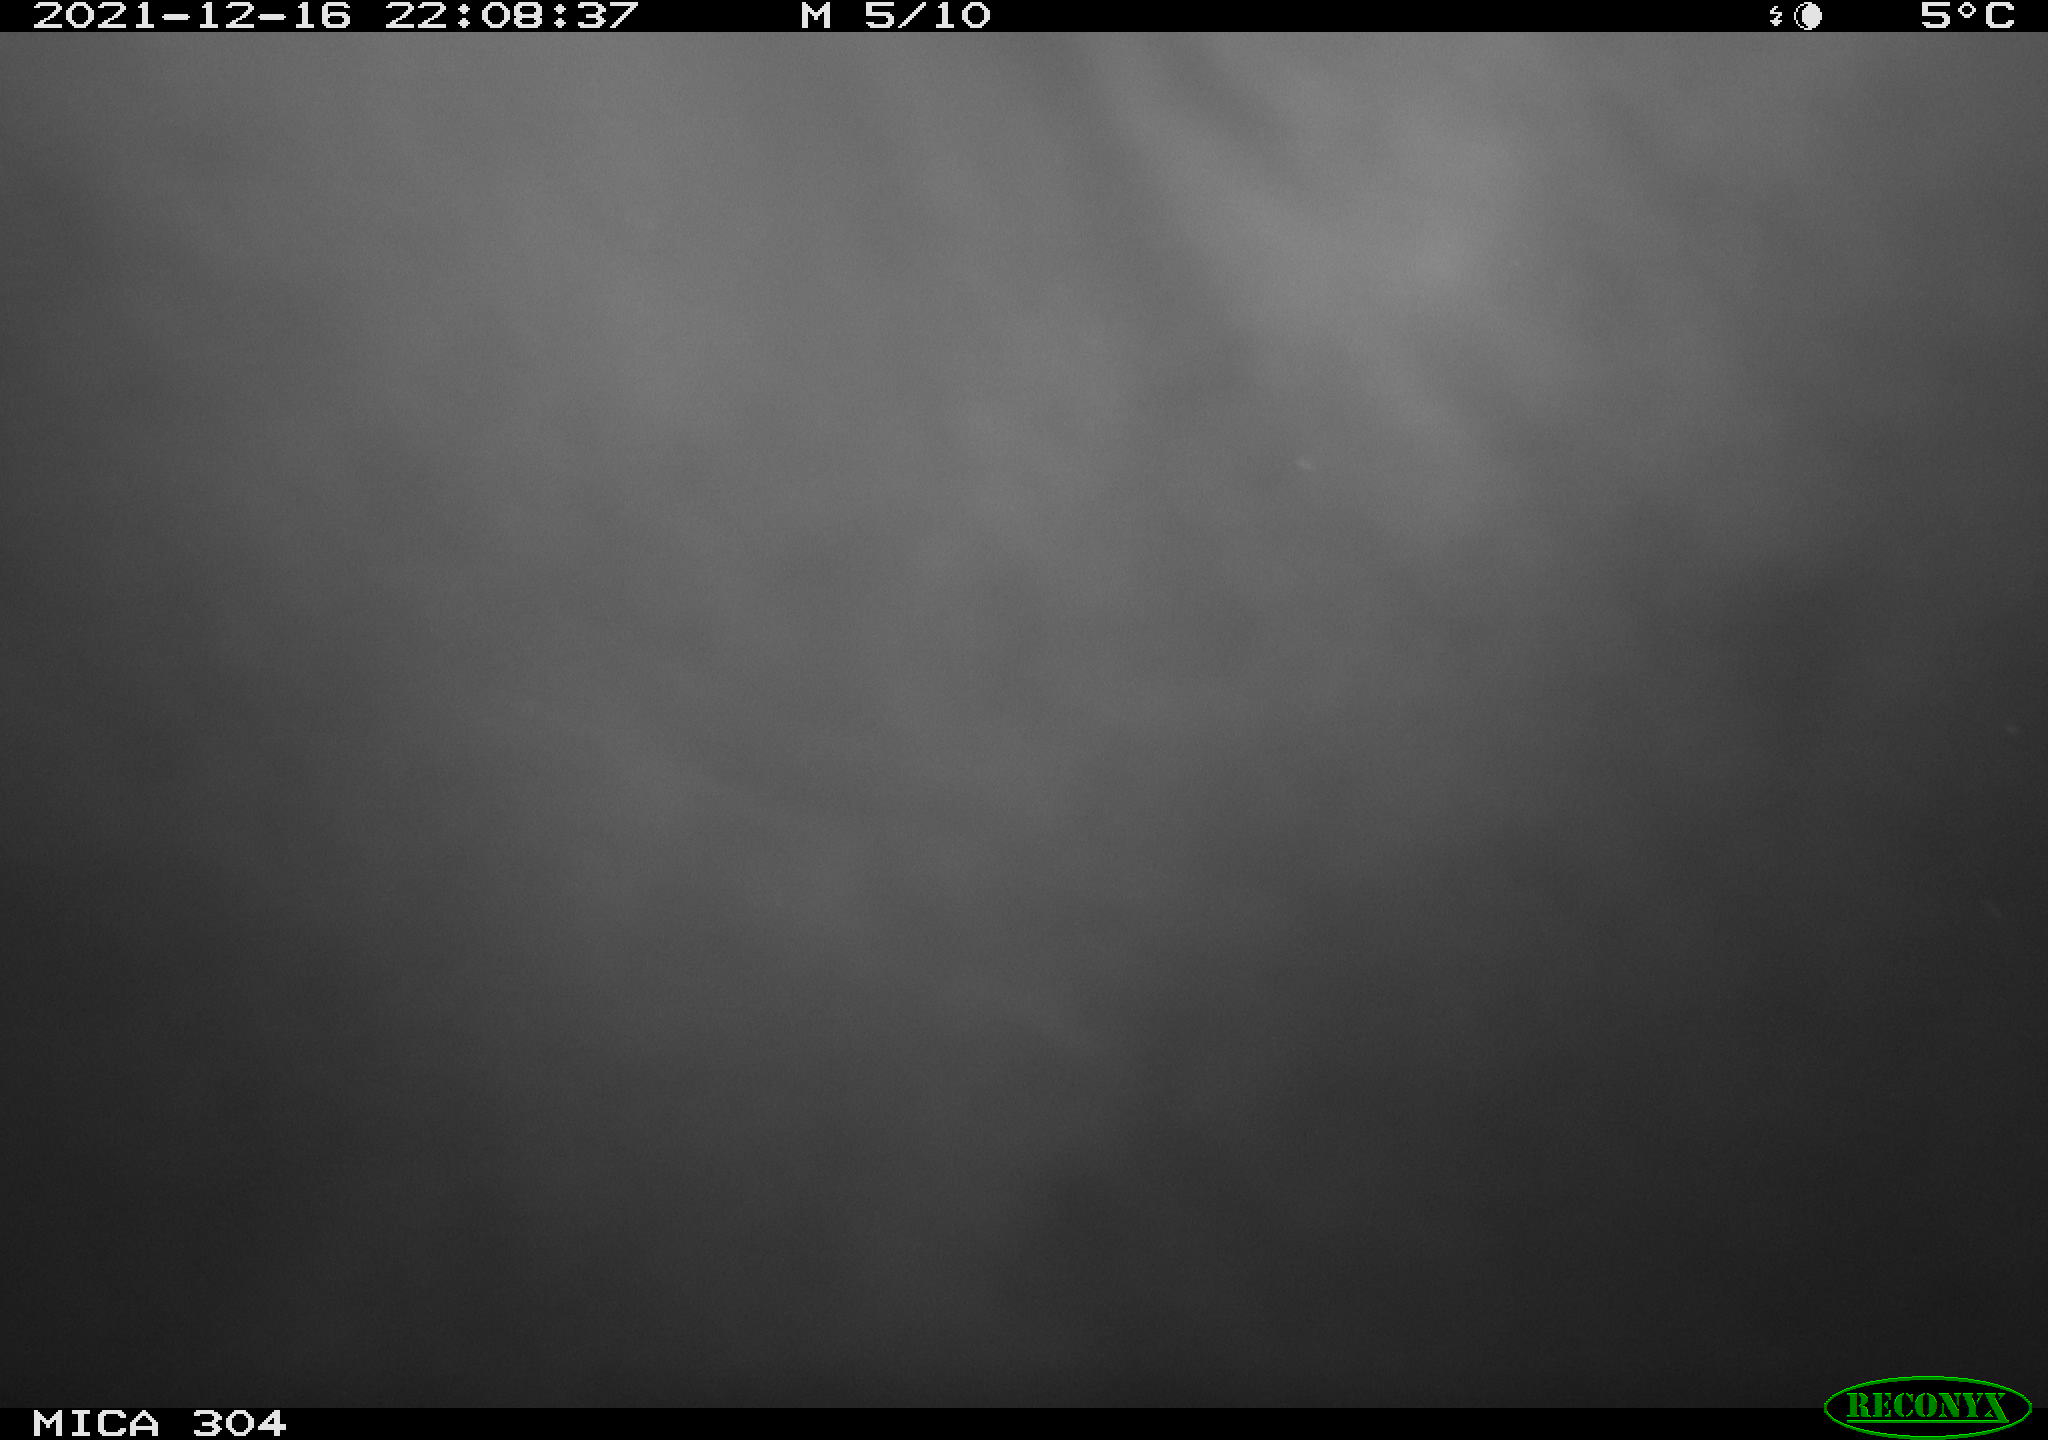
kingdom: Animalia
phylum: Chordata
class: Mammalia
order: Rodentia
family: Muridae
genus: Rattus
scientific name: Rattus norvegicus
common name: Brown rat
